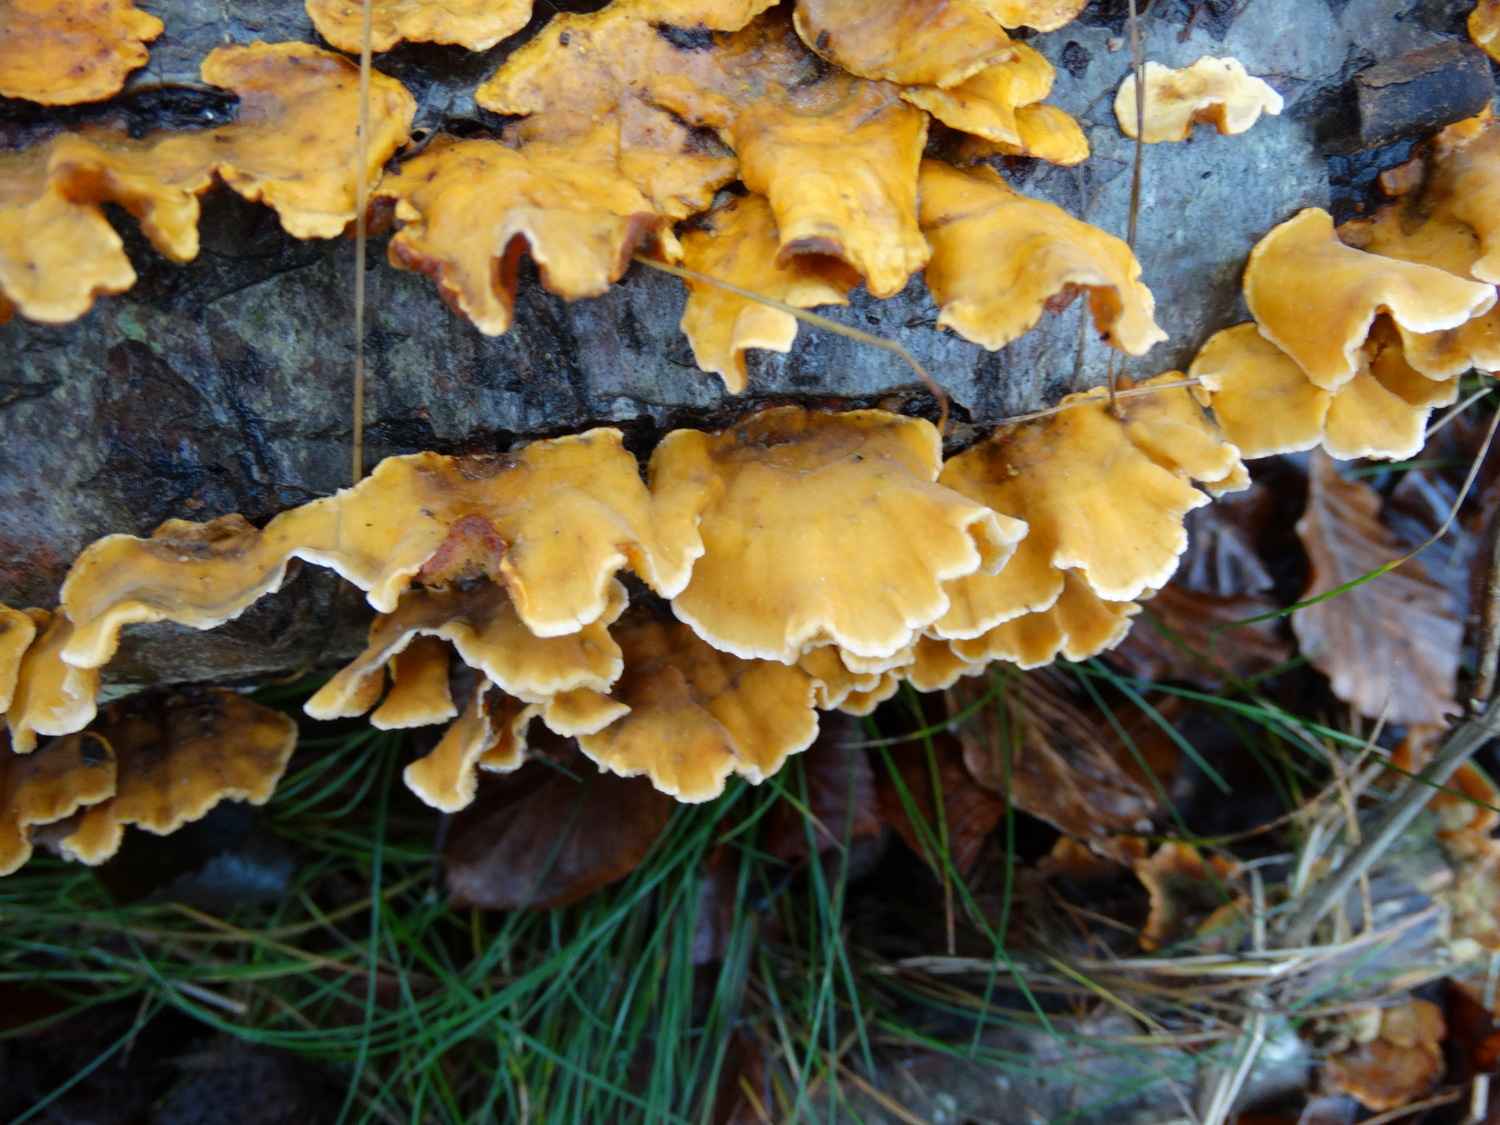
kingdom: Fungi
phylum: Basidiomycota
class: Agaricomycetes
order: Russulales
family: Stereaceae
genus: Stereum
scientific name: Stereum hirsutum
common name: håret lædersvamp
